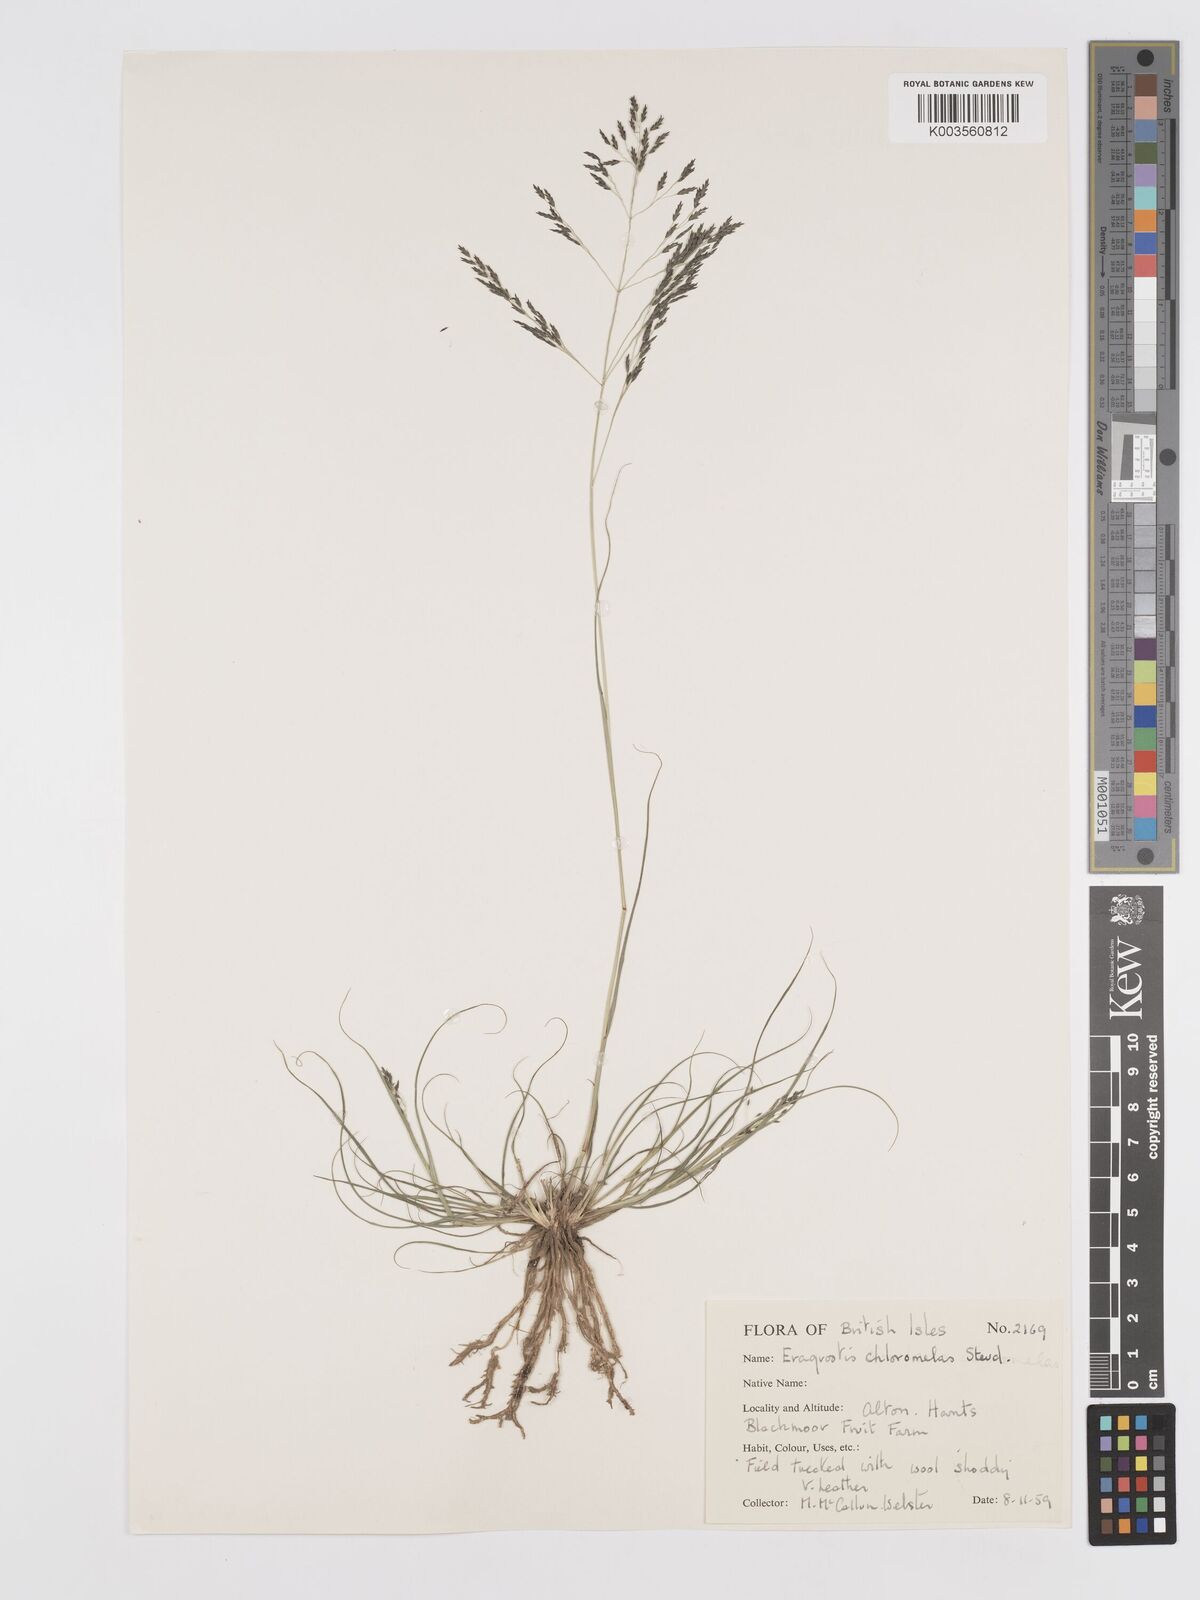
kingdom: Plantae
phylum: Tracheophyta
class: Liliopsida
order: Poales
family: Poaceae
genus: Eragrostis
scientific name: Eragrostis curvula
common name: African love-grass
